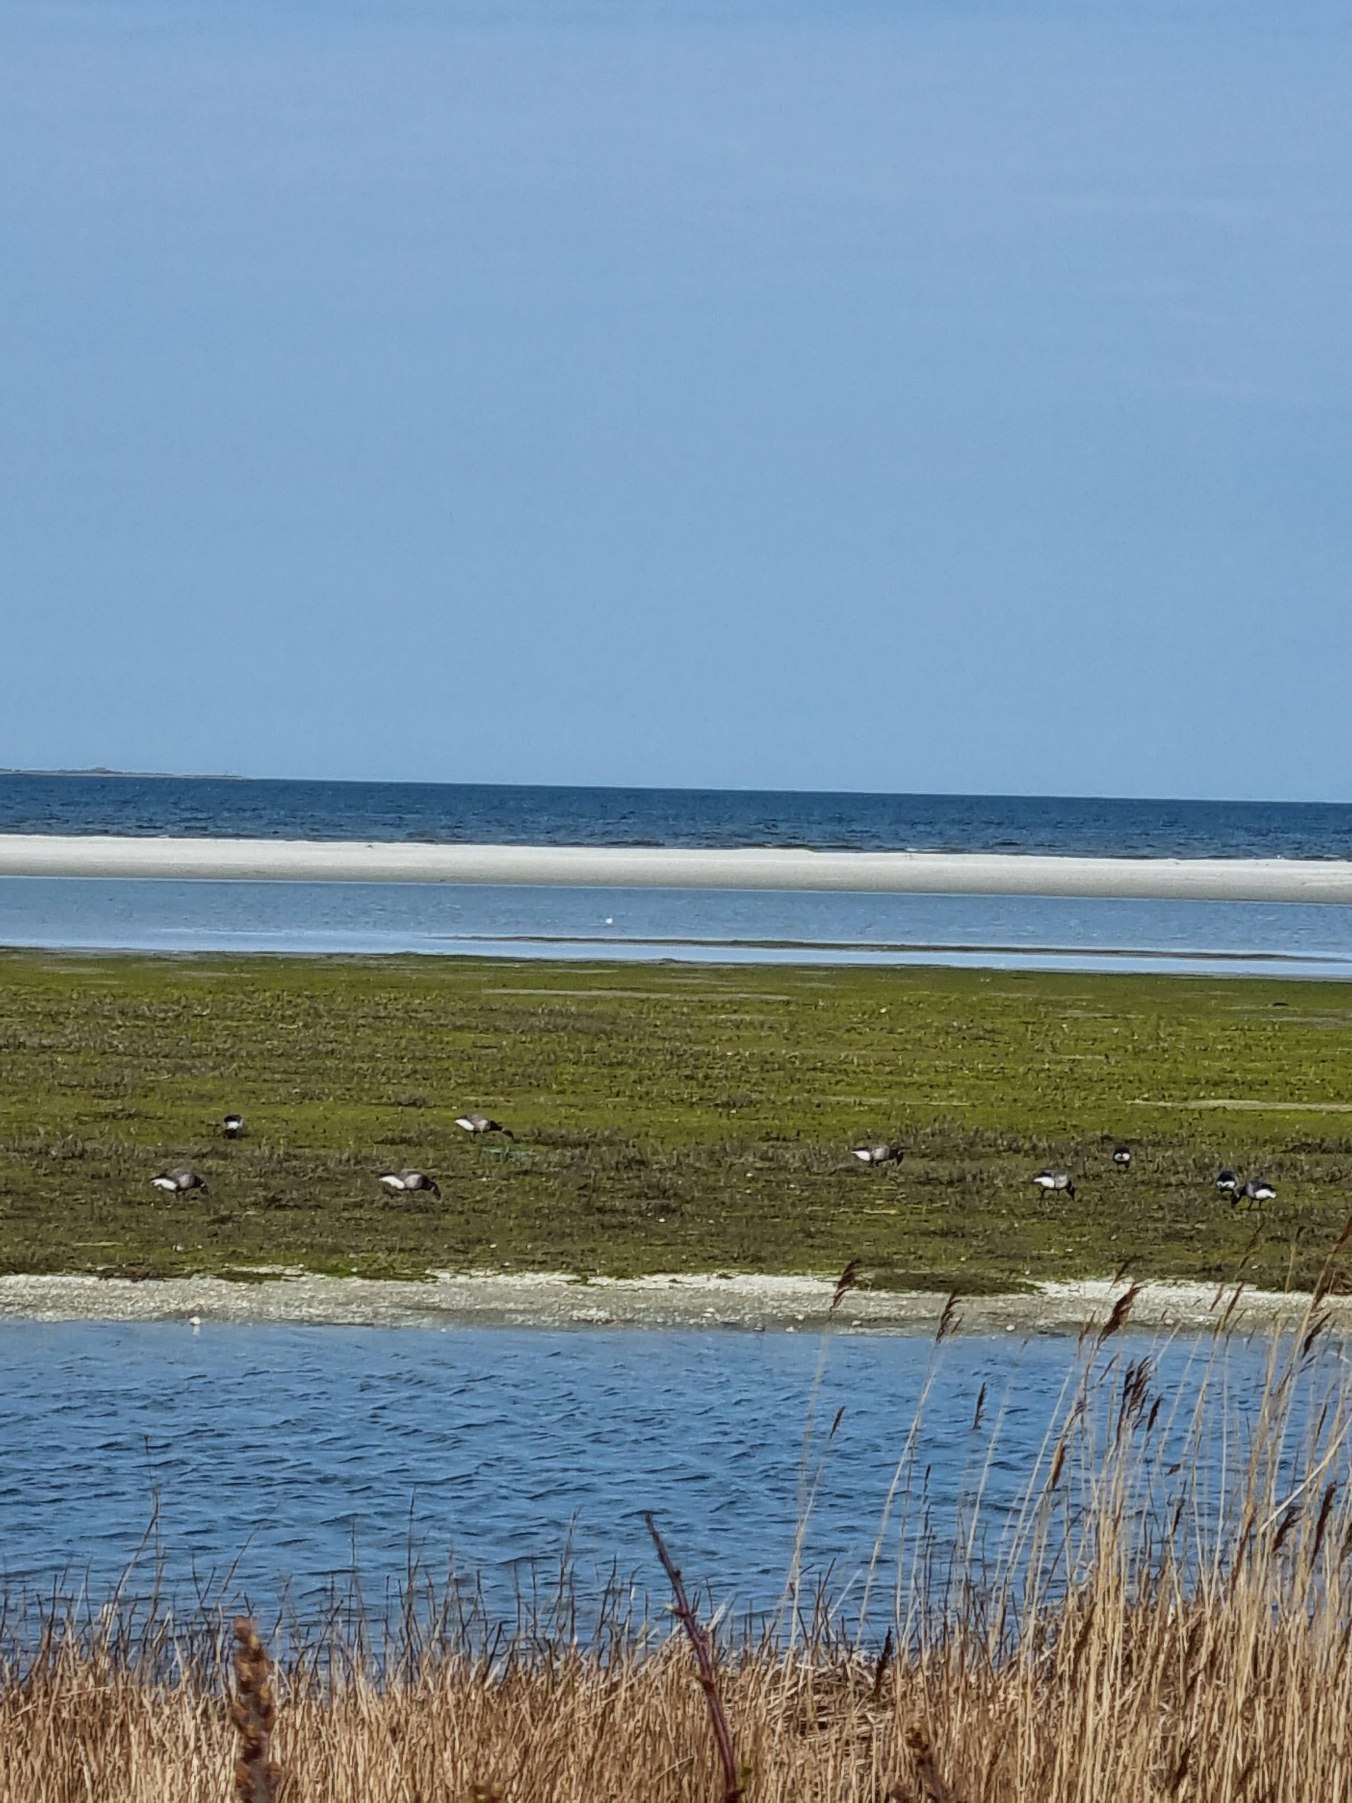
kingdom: Animalia
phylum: Chordata
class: Aves
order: Anseriformes
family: Anatidae
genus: Branta
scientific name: Branta bernicla
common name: Knortegås
